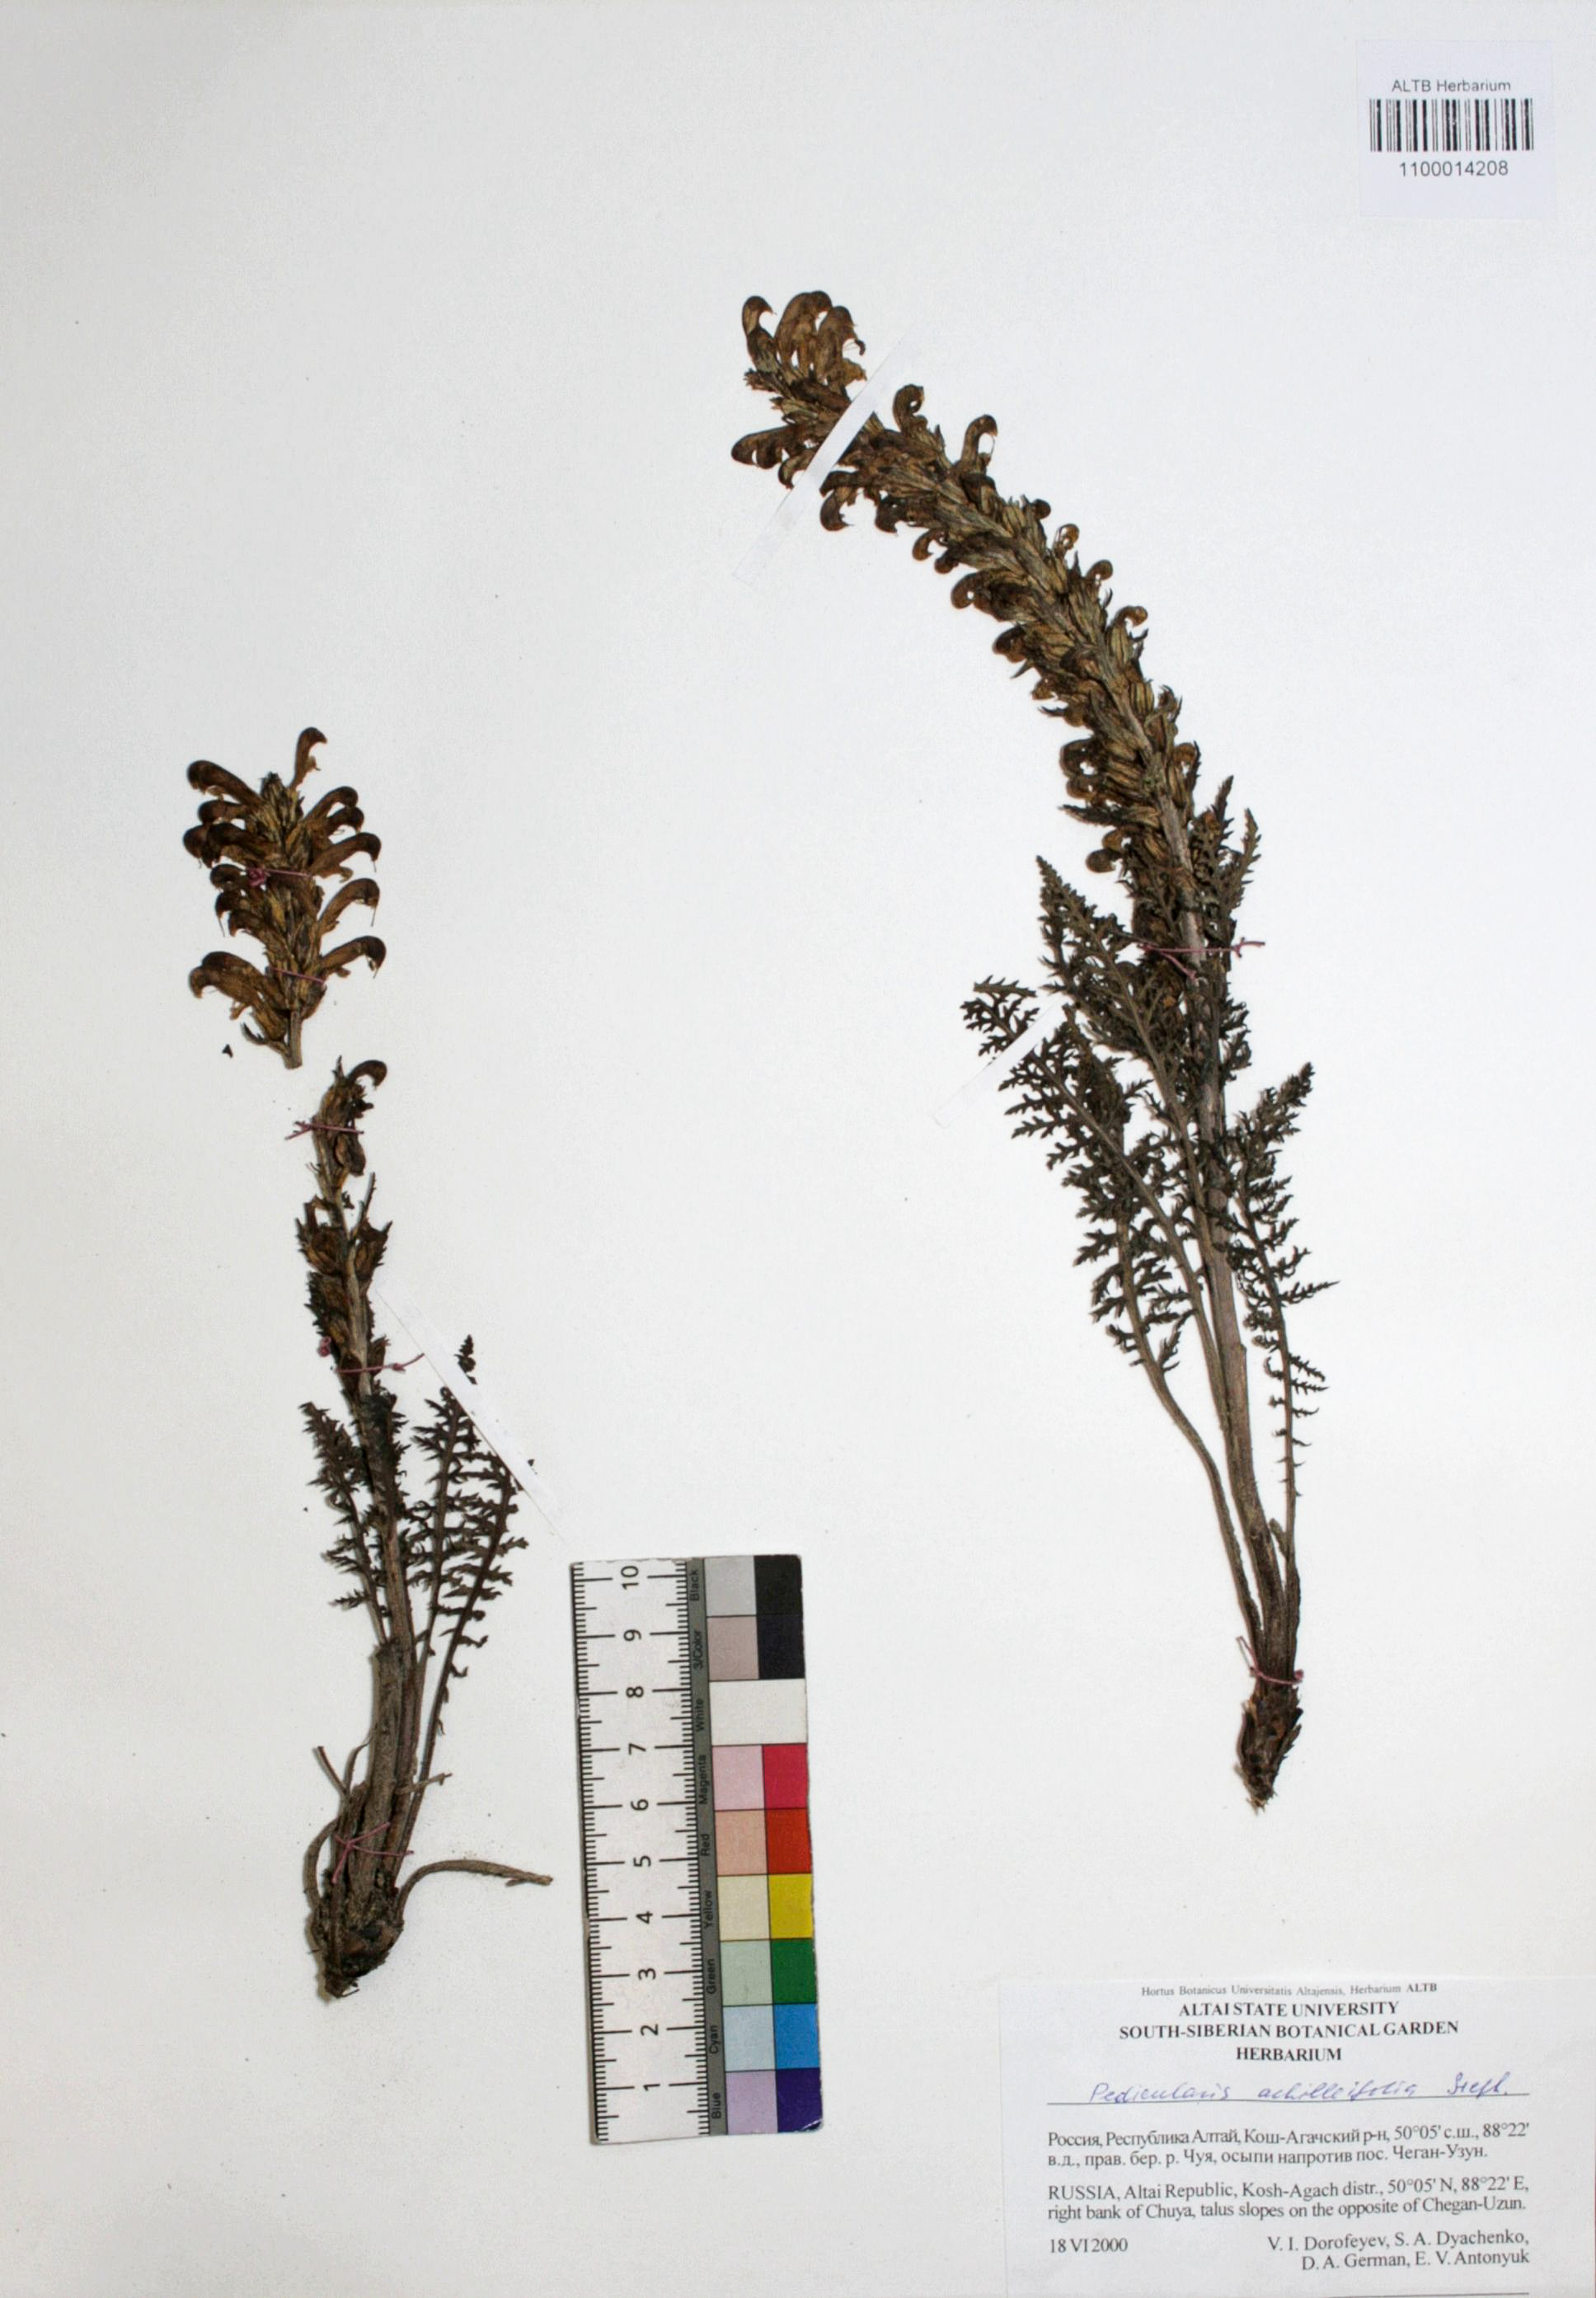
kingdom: Plantae
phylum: Tracheophyta
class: Magnoliopsida
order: Lamiales
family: Orobanchaceae
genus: Pedicularis
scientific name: Pedicularis achilleifolia
